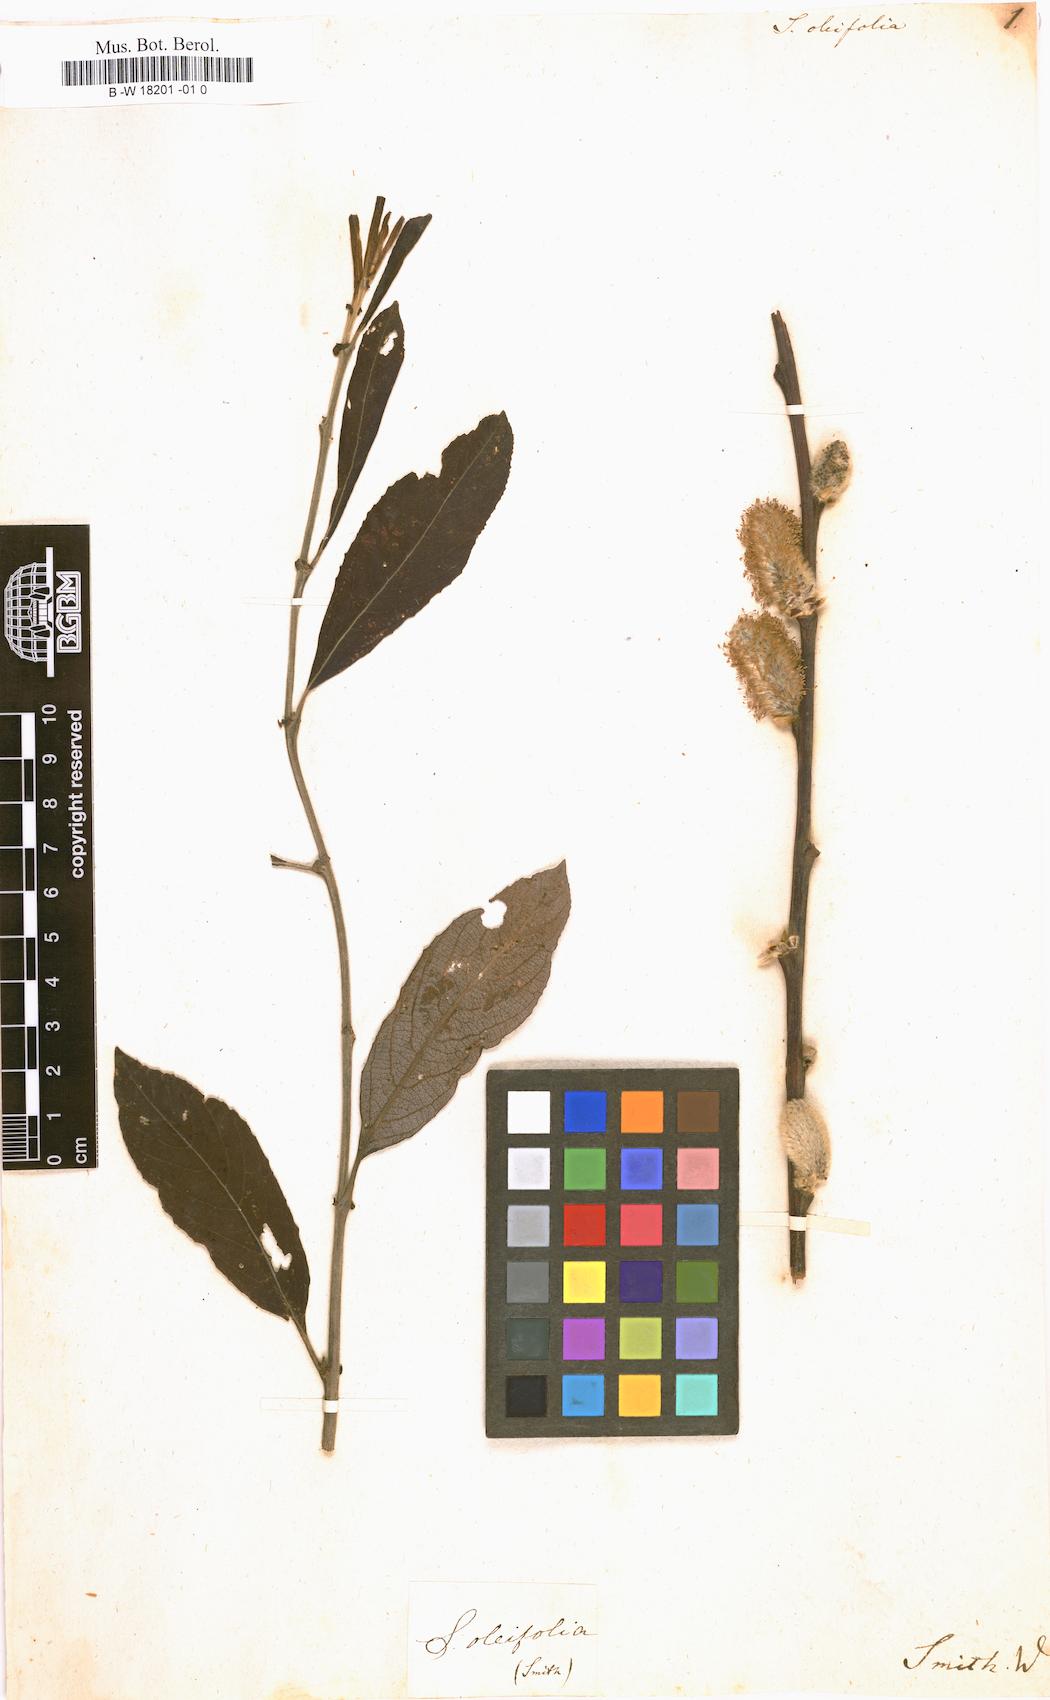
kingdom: Plantae
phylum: Tracheophyta
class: Magnoliopsida
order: Malpighiales
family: Salicaceae
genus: Salix
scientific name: Salix oleifolia
